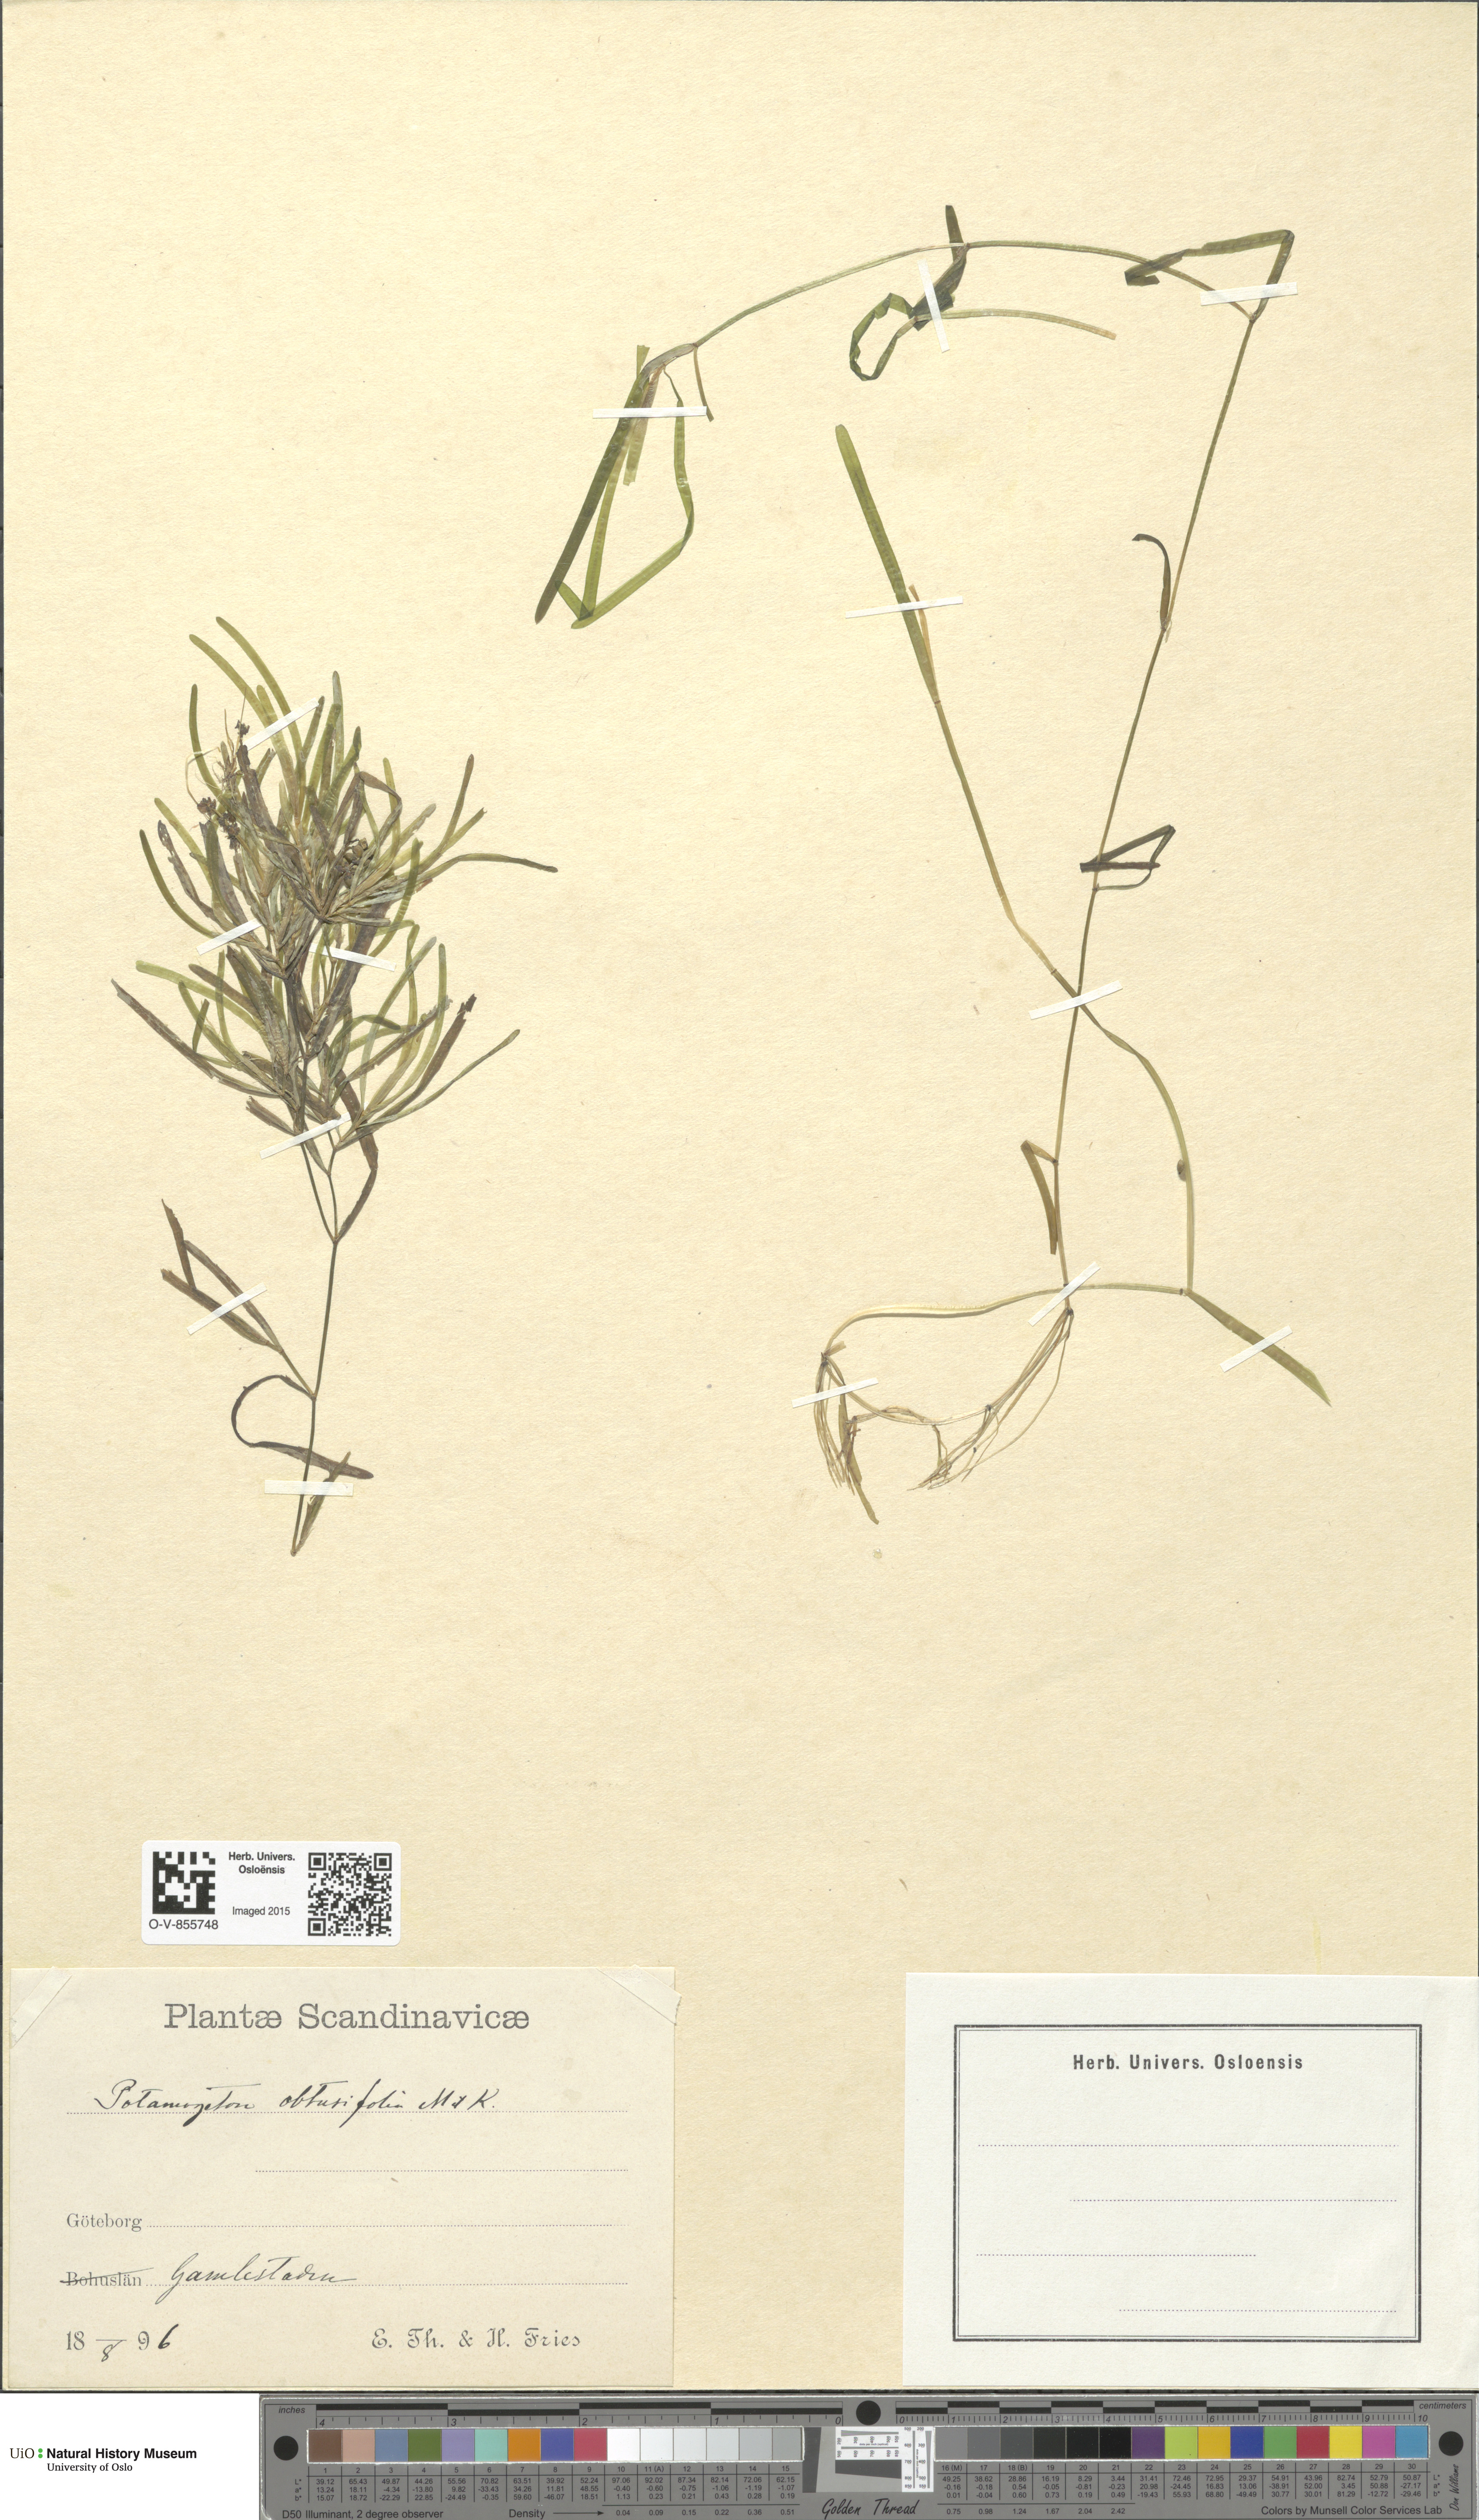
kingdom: Plantae
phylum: Tracheophyta
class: Liliopsida
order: Alismatales
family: Potamogetonaceae
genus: Potamogeton
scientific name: Potamogeton obtusifolius
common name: Blunt-leaved pondweed
